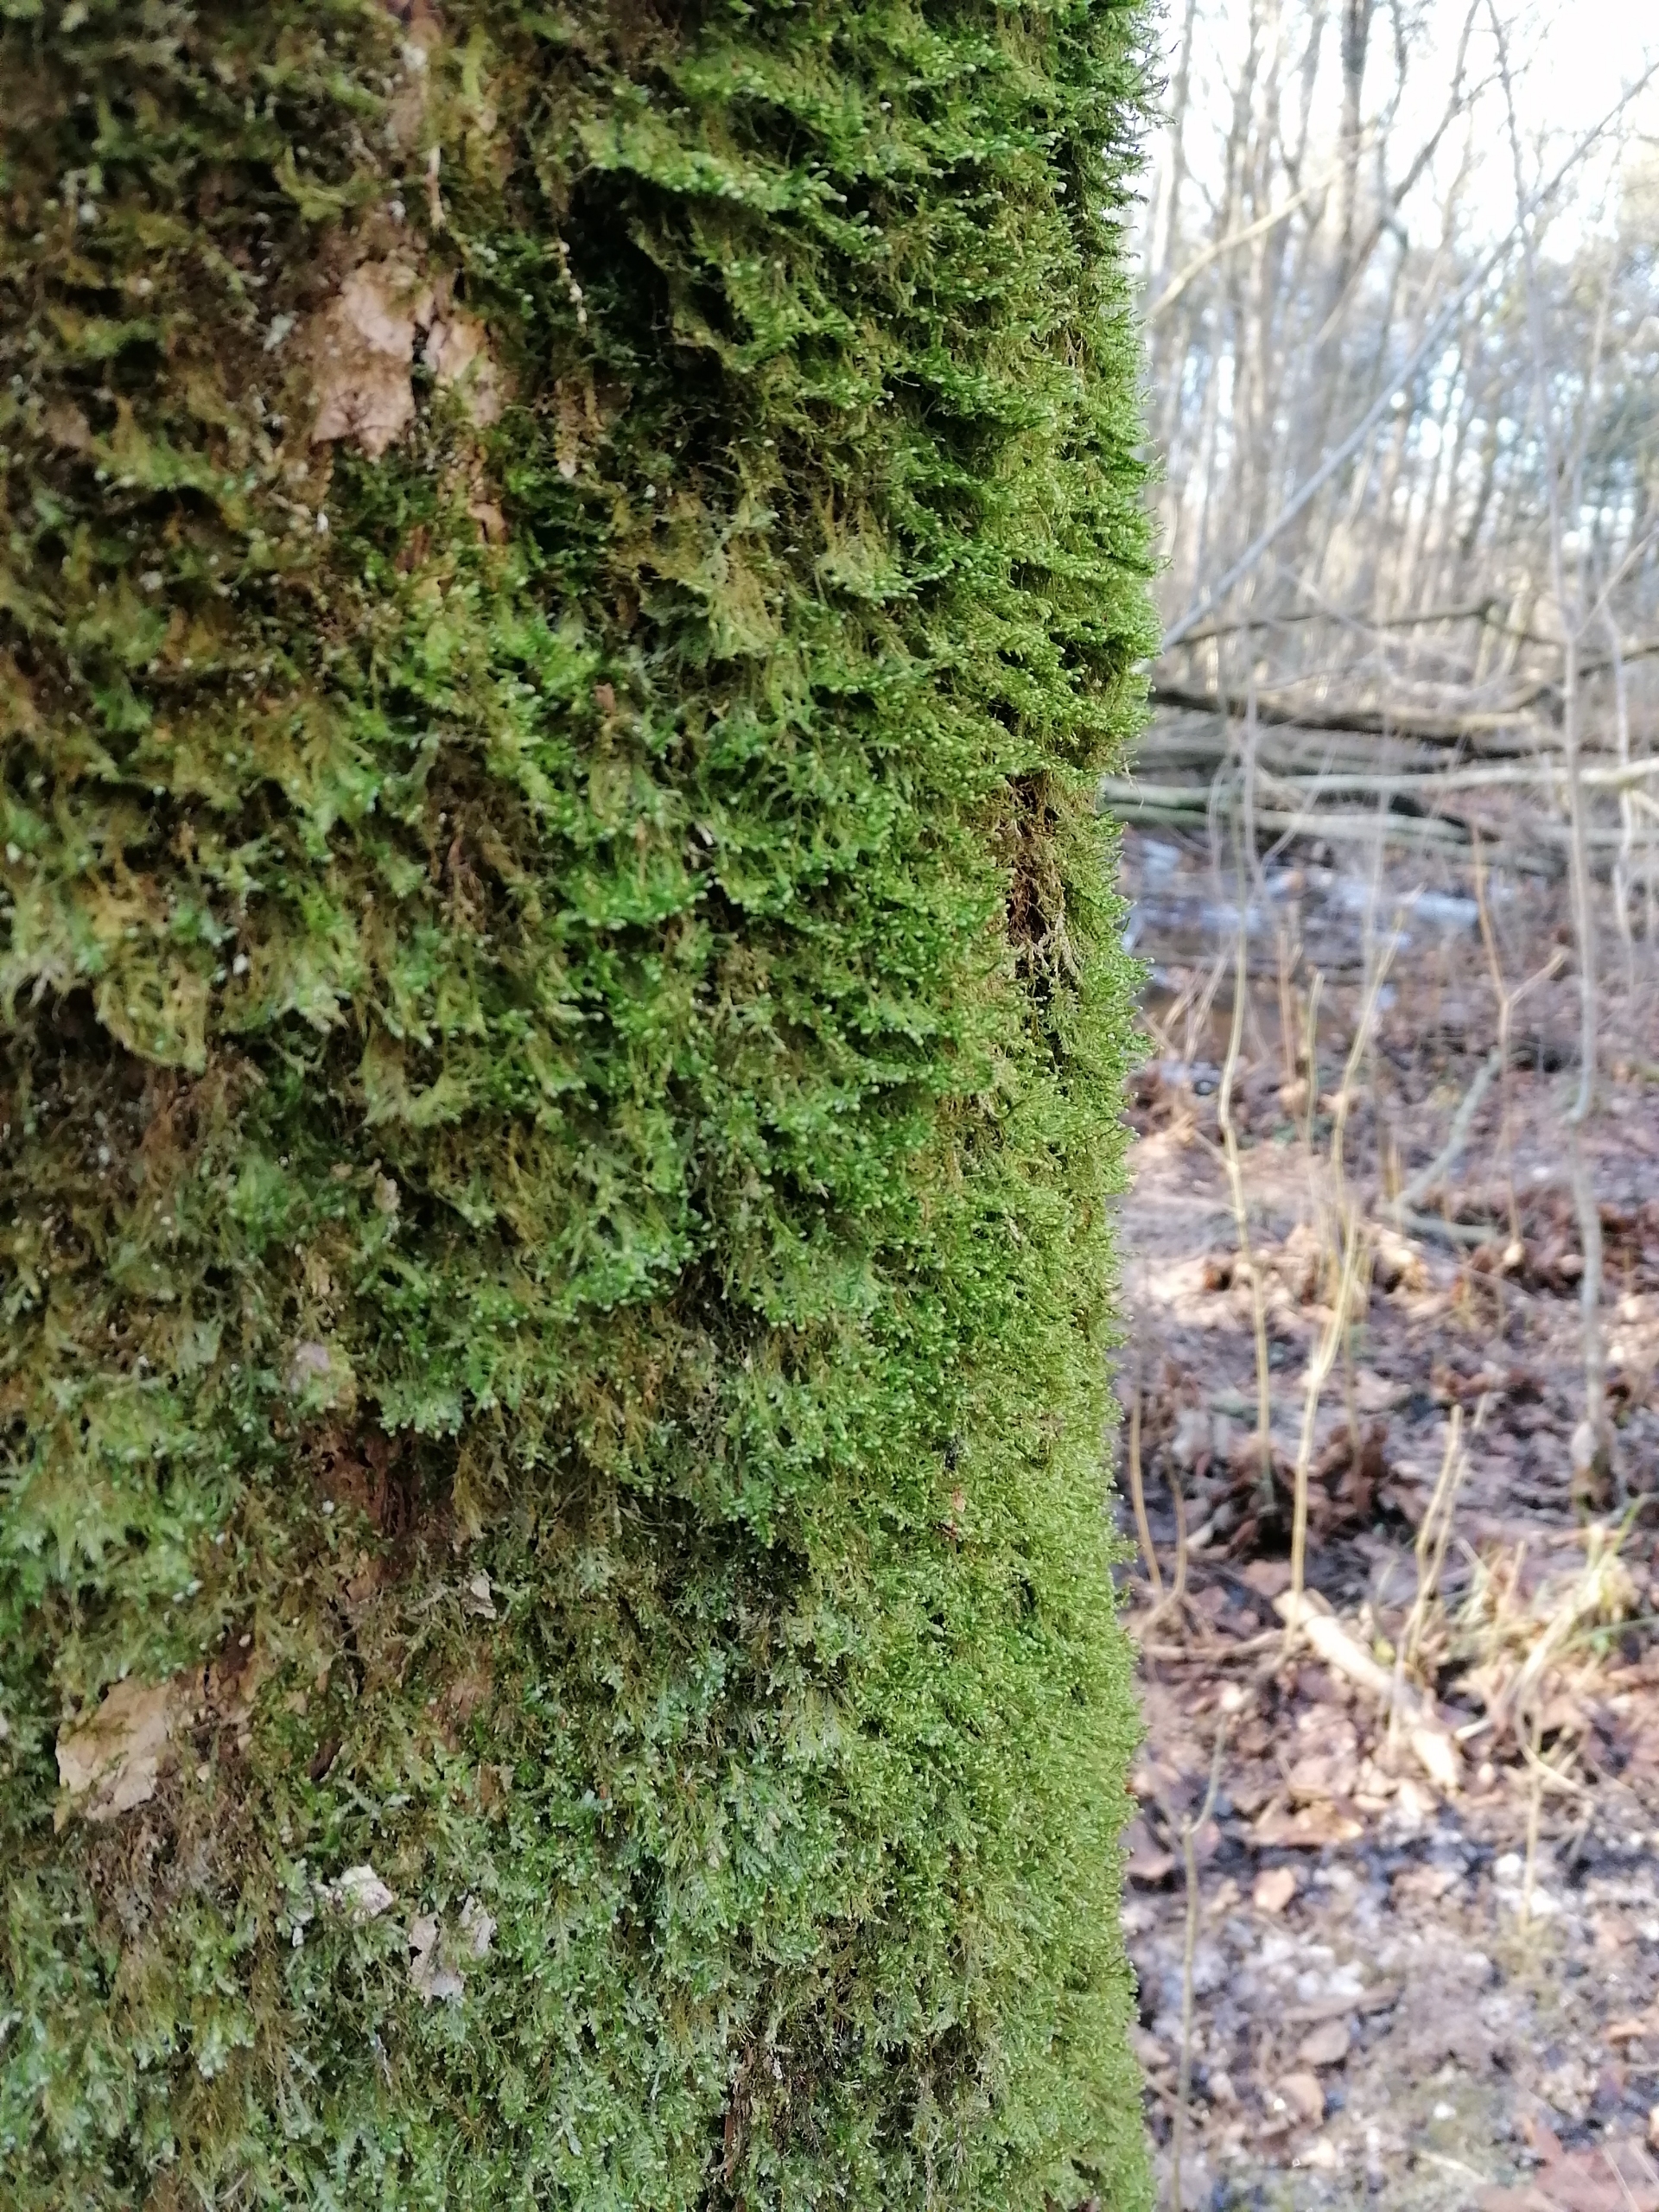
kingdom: Plantae
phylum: Bryophyta
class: Bryopsida
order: Hypnales
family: Neckeraceae
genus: Alleniella
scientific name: Alleniella complanata
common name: Almindelig fladmos
